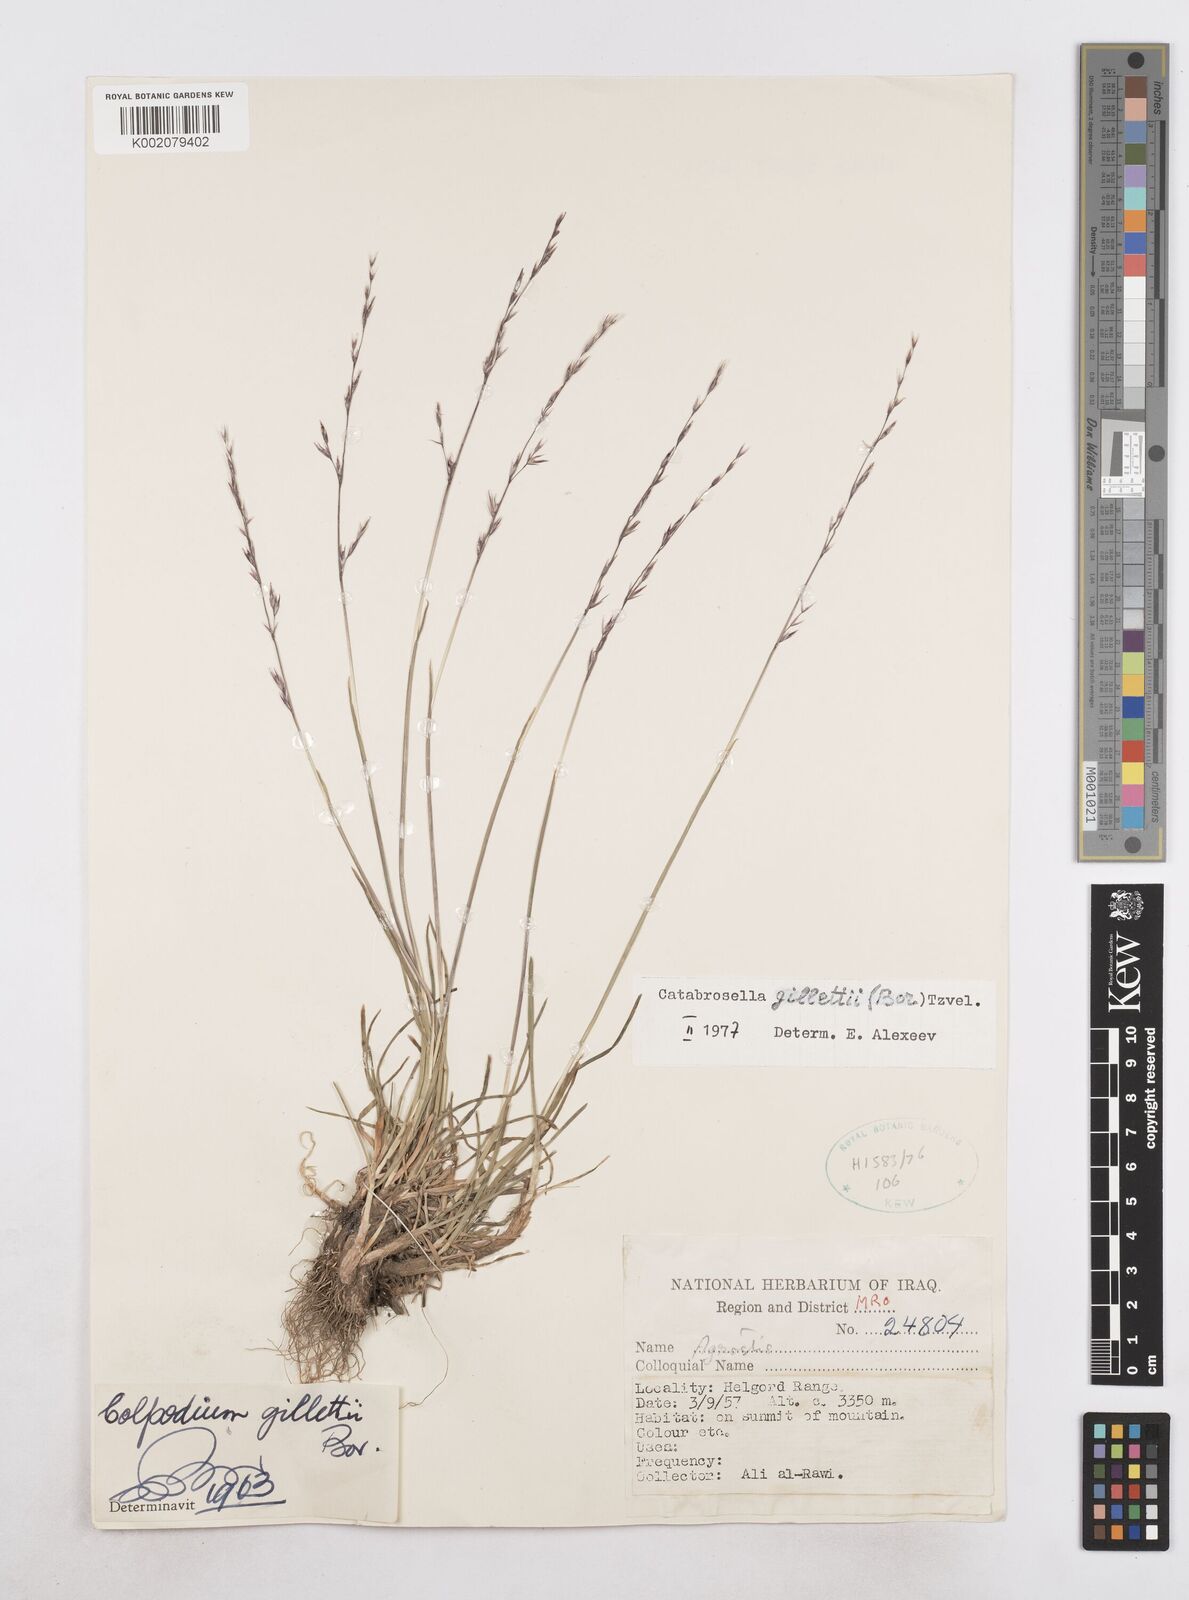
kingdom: Plantae
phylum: Tracheophyta
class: Liliopsida
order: Poales
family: Poaceae
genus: Catabrosella
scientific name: Catabrosella gillettii
